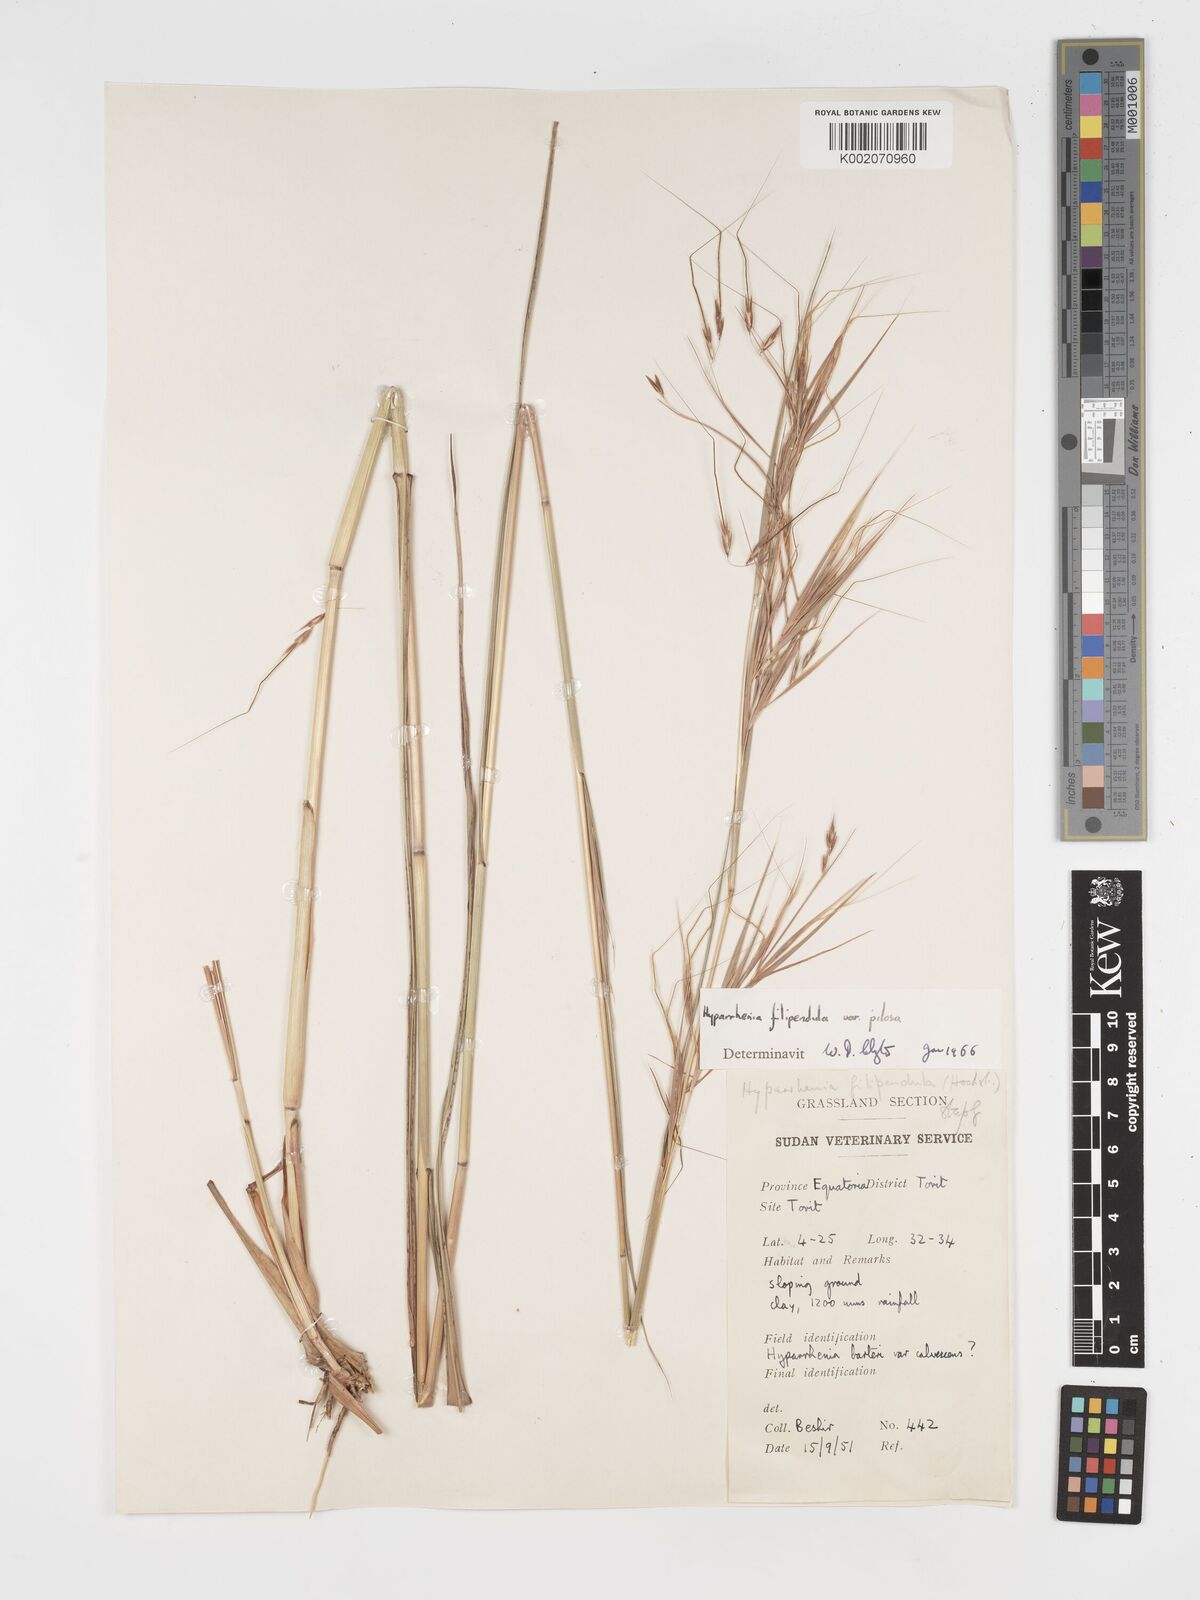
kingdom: Plantae
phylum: Tracheophyta
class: Liliopsida
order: Poales
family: Poaceae
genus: Hyparrhenia
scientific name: Hyparrhenia filipendula
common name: Tambookie grass
